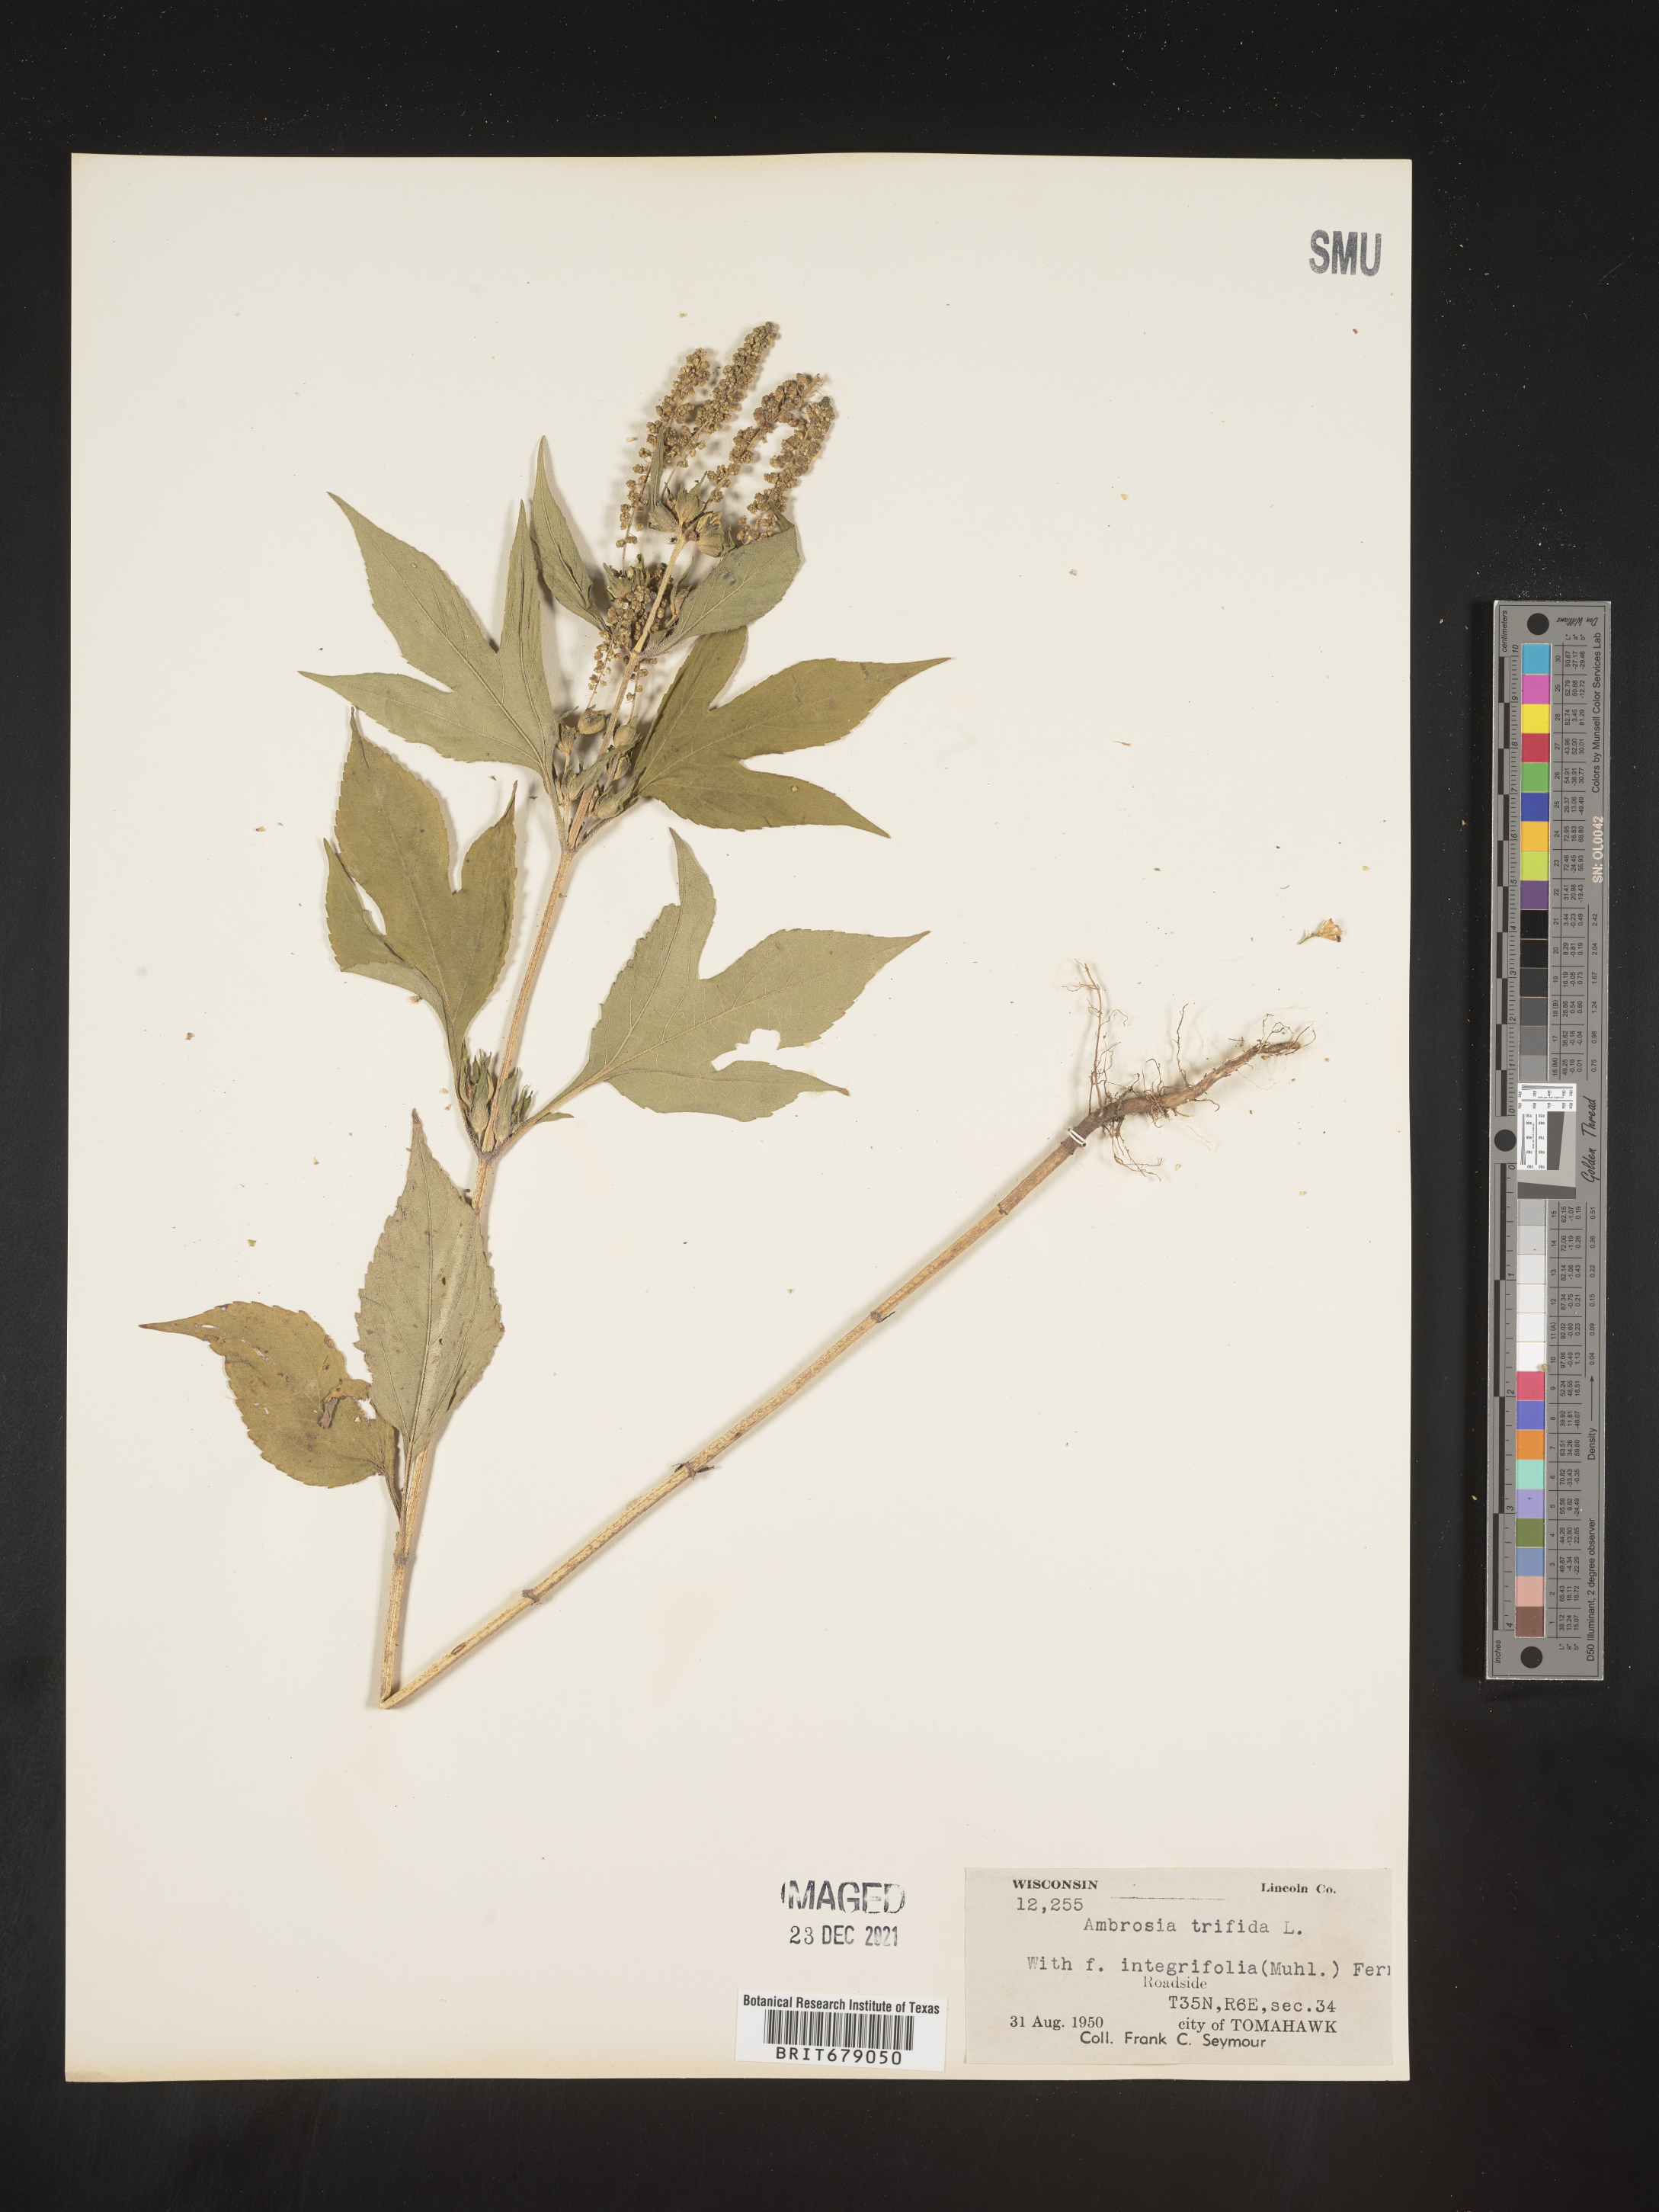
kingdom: Plantae
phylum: Tracheophyta
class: Magnoliopsida
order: Asterales
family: Asteraceae
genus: Ambrosia
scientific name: Ambrosia trifida
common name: Giant ragweed
